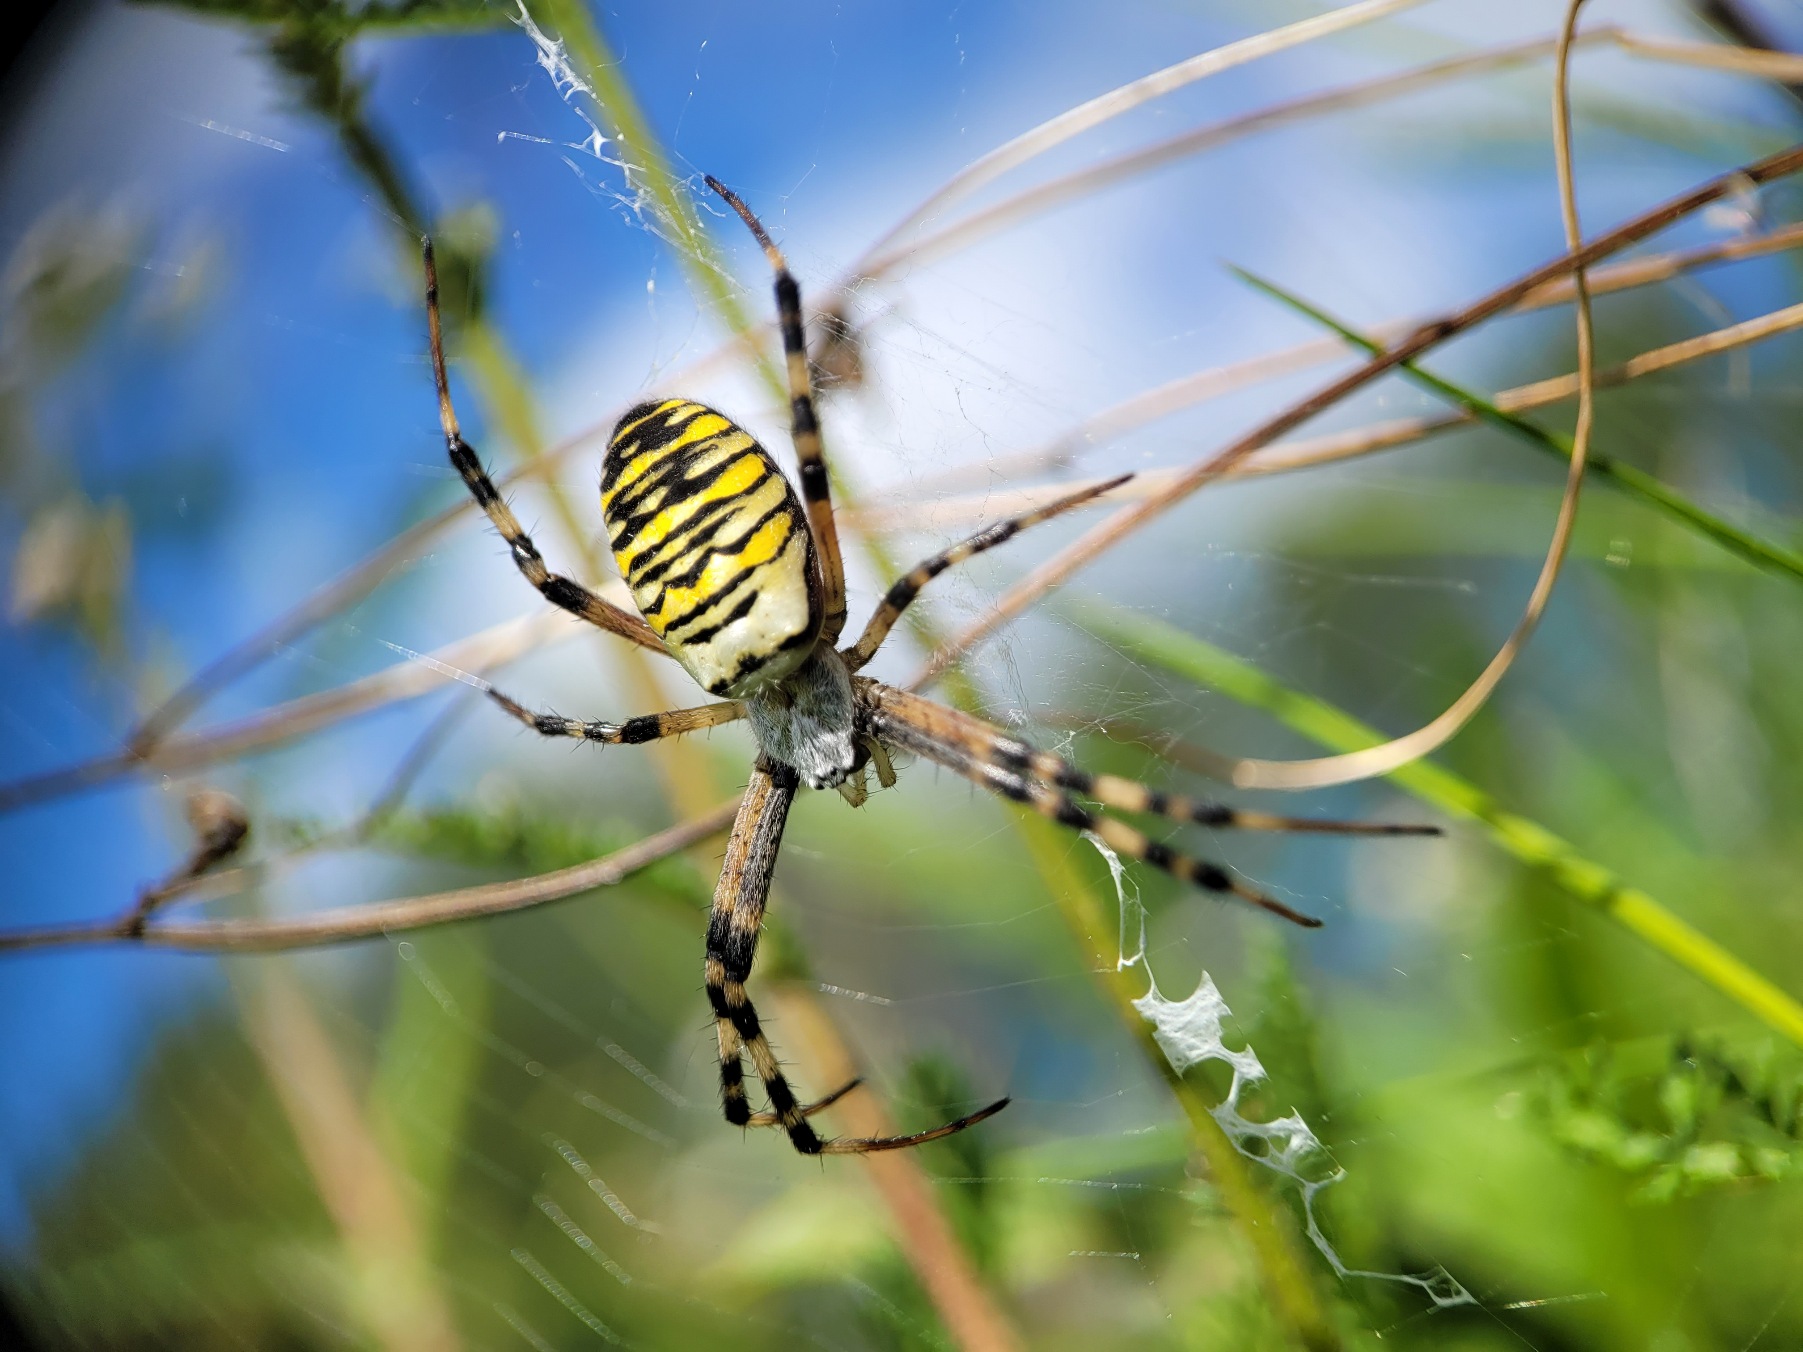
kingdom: Animalia
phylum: Arthropoda
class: Arachnida
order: Araneae
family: Araneidae
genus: Argiope
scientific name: Argiope bruennichi
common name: Hvepseedderkop
